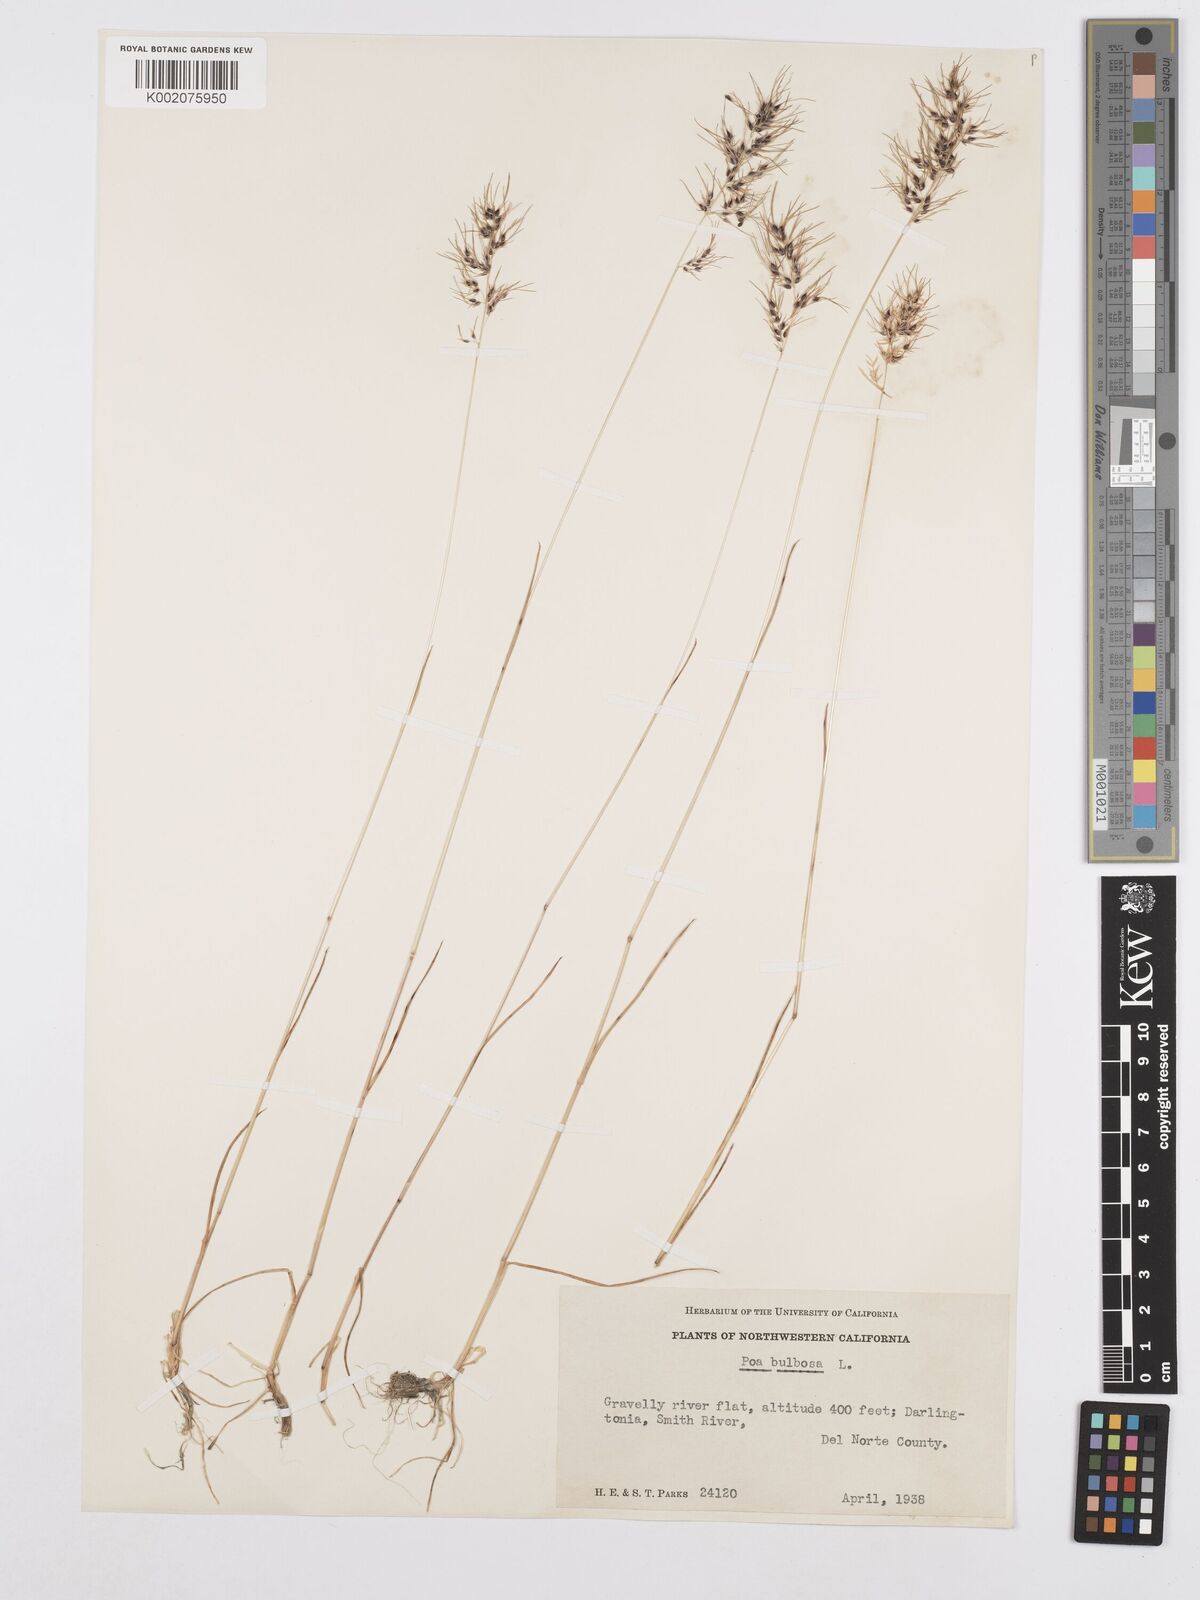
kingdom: Plantae
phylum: Tracheophyta
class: Liliopsida
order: Poales
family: Poaceae
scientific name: Poaceae
